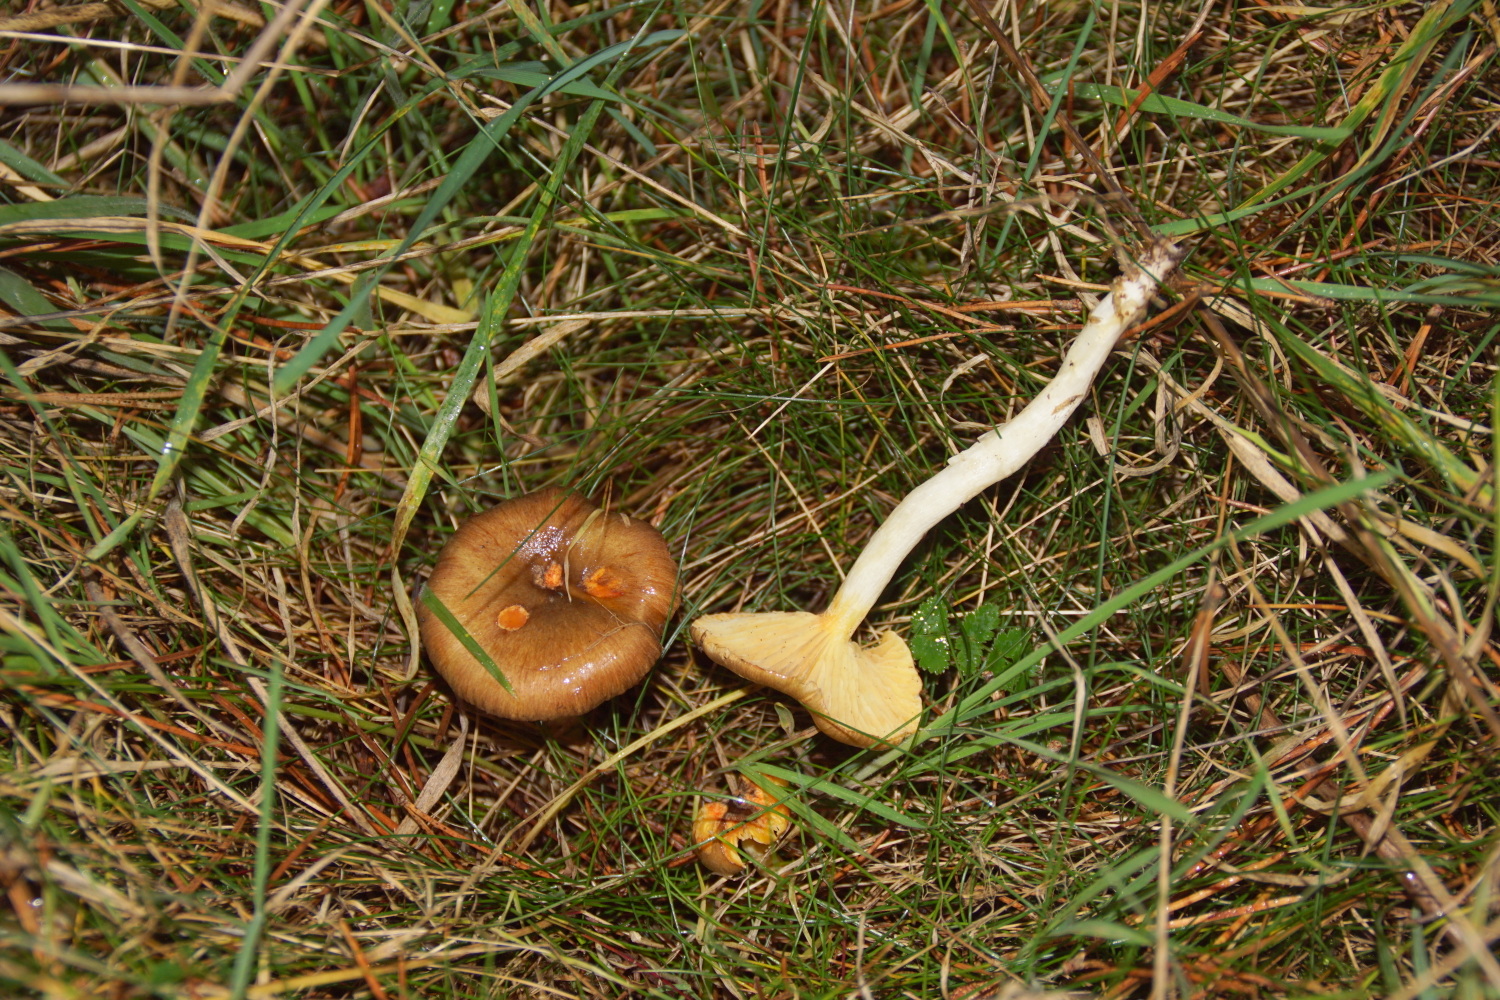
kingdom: Fungi
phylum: Basidiomycota
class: Agaricomycetes
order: Agaricales
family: Hygrophoraceae
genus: Hygrophorus
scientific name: Hygrophorus hypothejus
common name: frost-sneglehat
